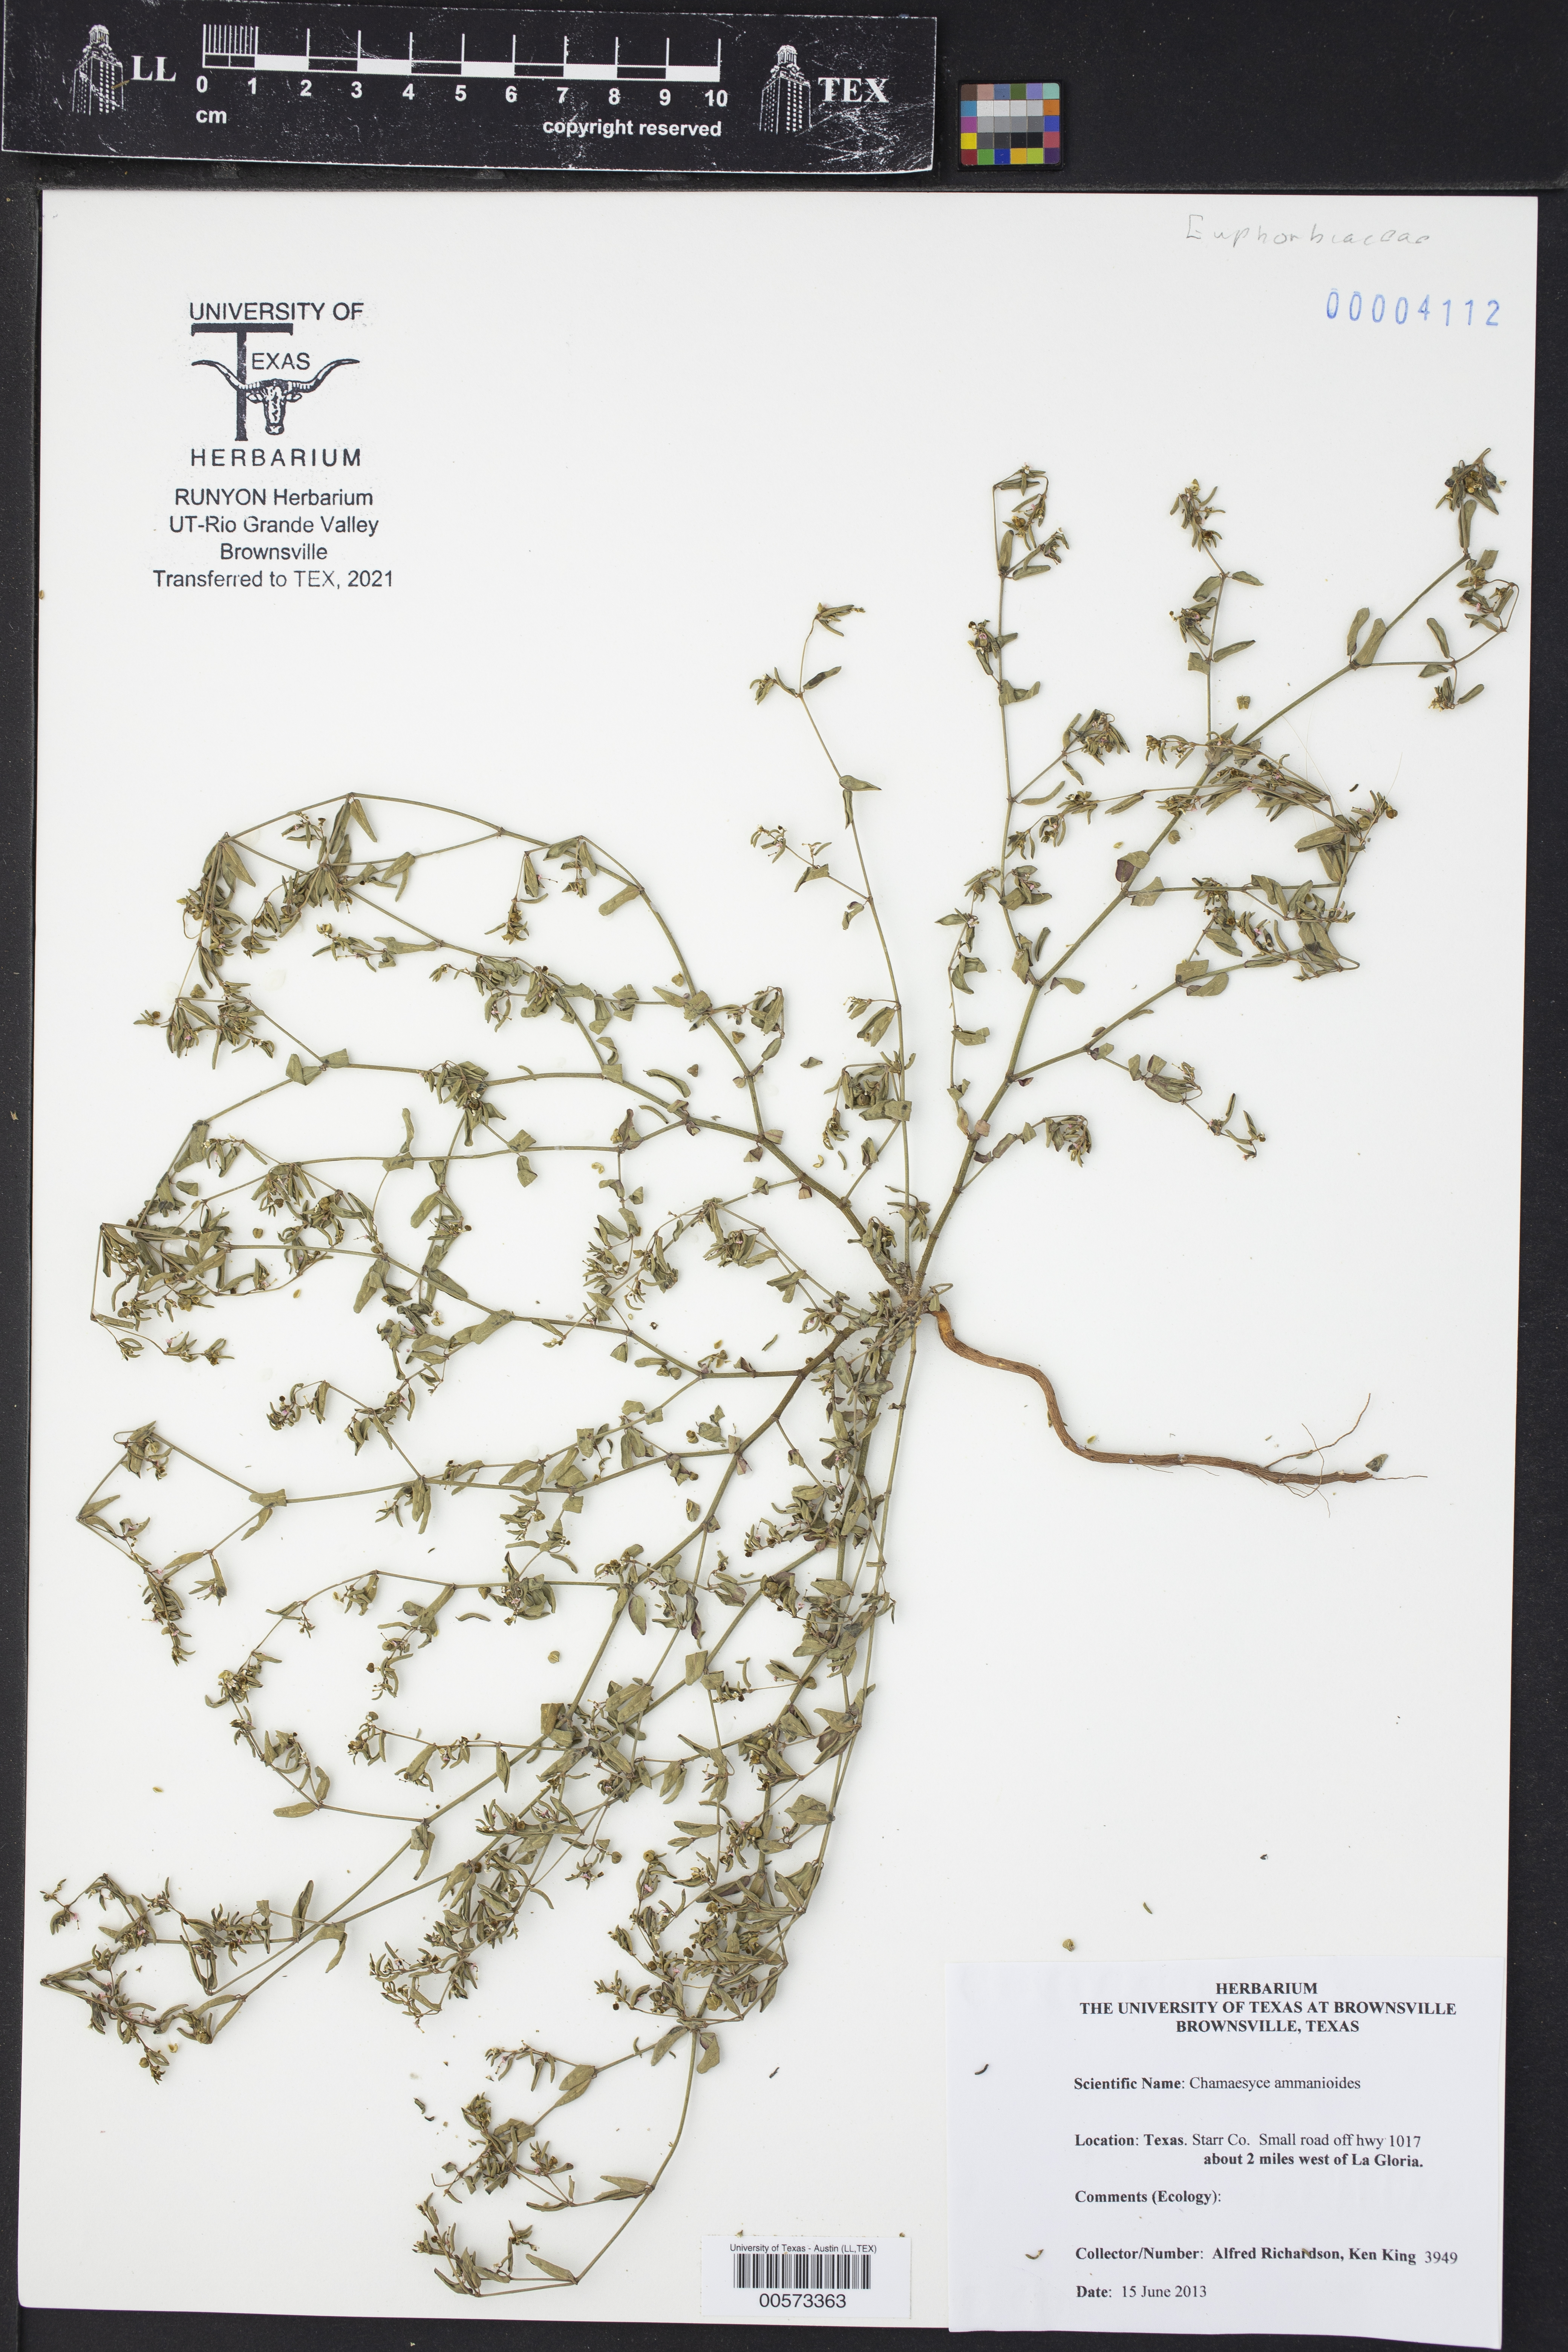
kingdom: Plantae
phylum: Tracheophyta
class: Magnoliopsida
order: Malpighiales
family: Euphorbiaceae
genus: Euphorbia
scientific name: Euphorbia bombensis
